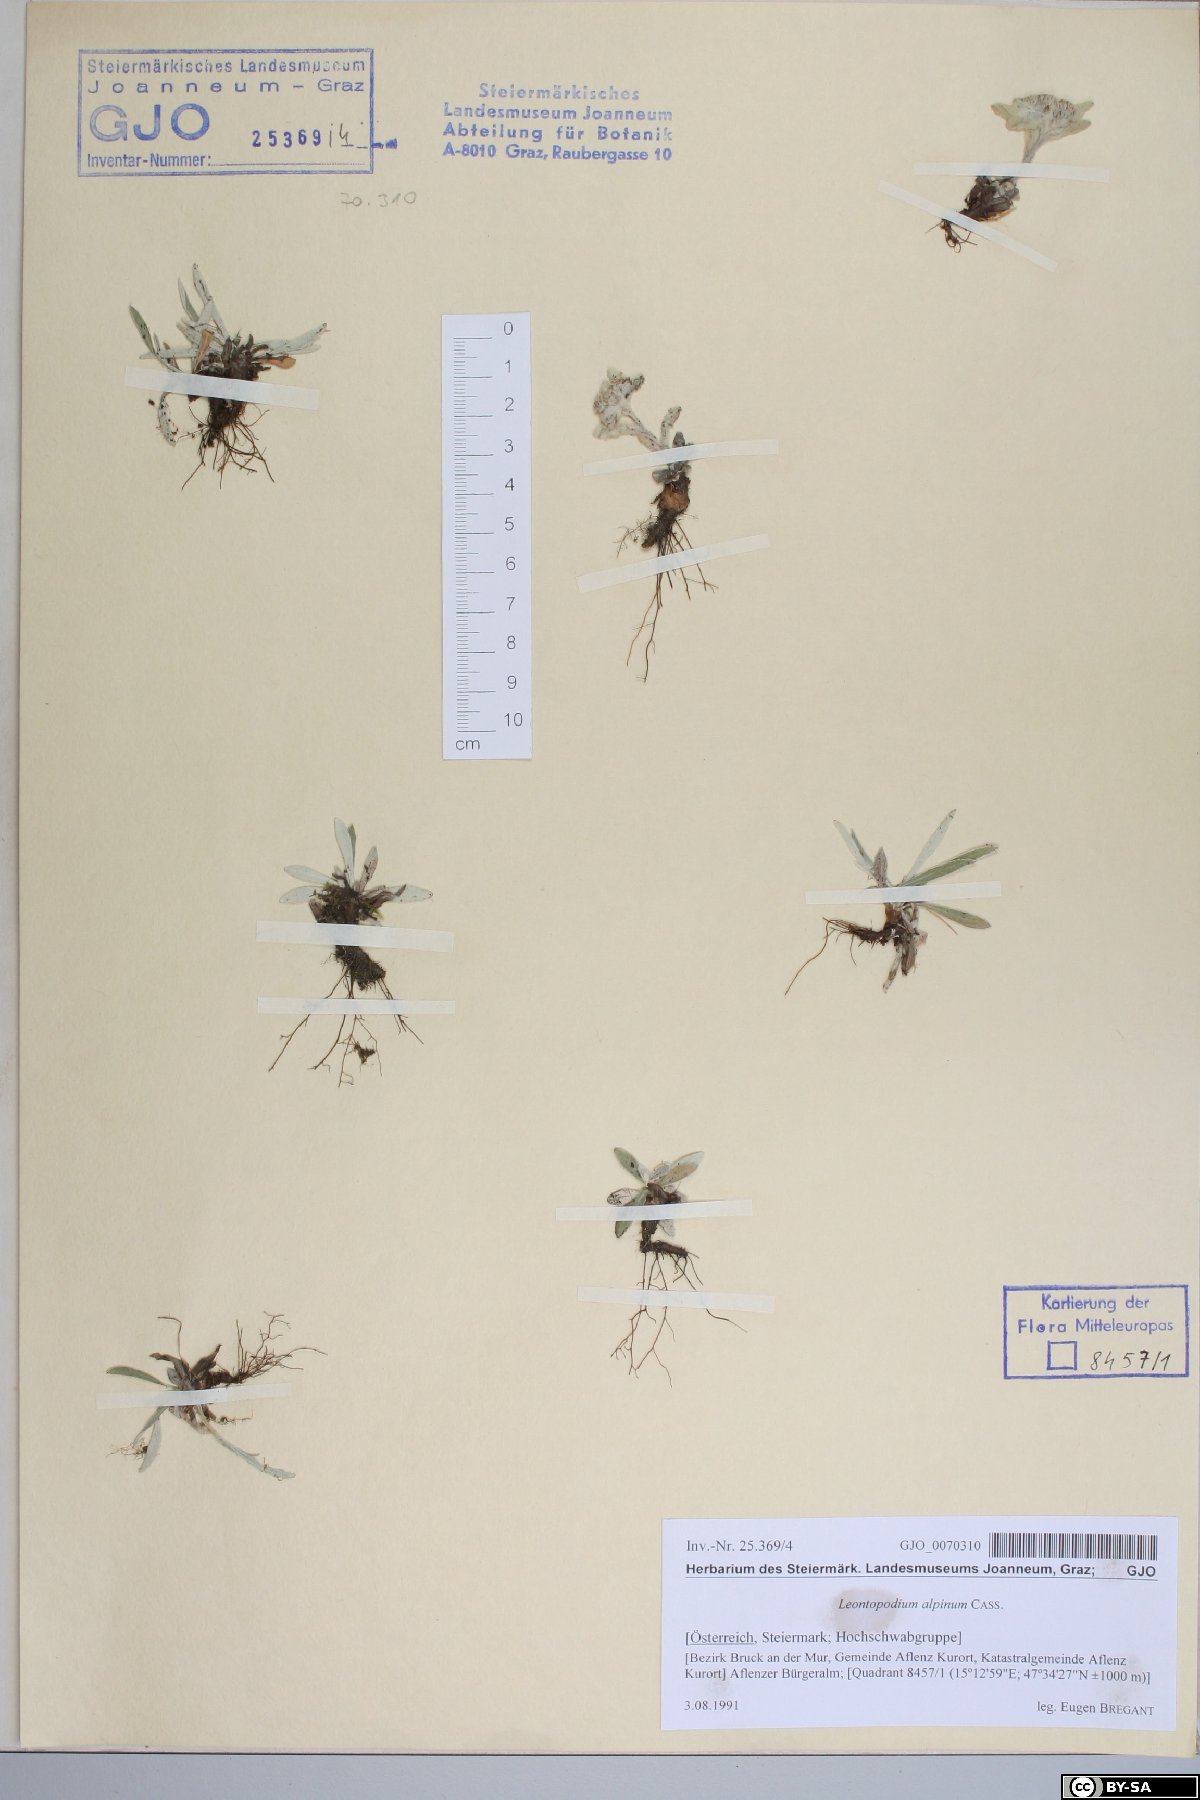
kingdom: Plantae
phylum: Tracheophyta
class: Magnoliopsida
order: Asterales
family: Asteraceae
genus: Leontopodium
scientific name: Leontopodium nivale
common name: Edelweiss
